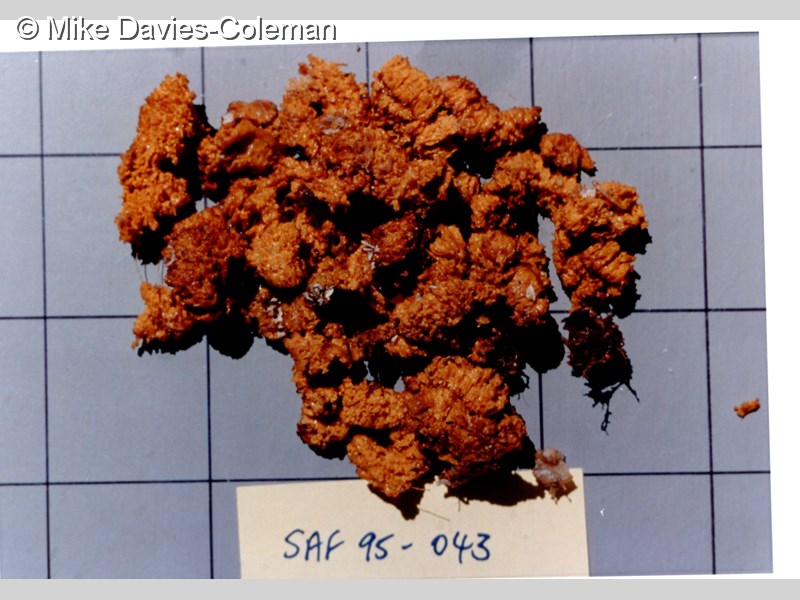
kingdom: Animalia
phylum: Porifera
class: Demospongiae
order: Poecilosclerida
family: Acarnidae
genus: Iophon
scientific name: Iophon
